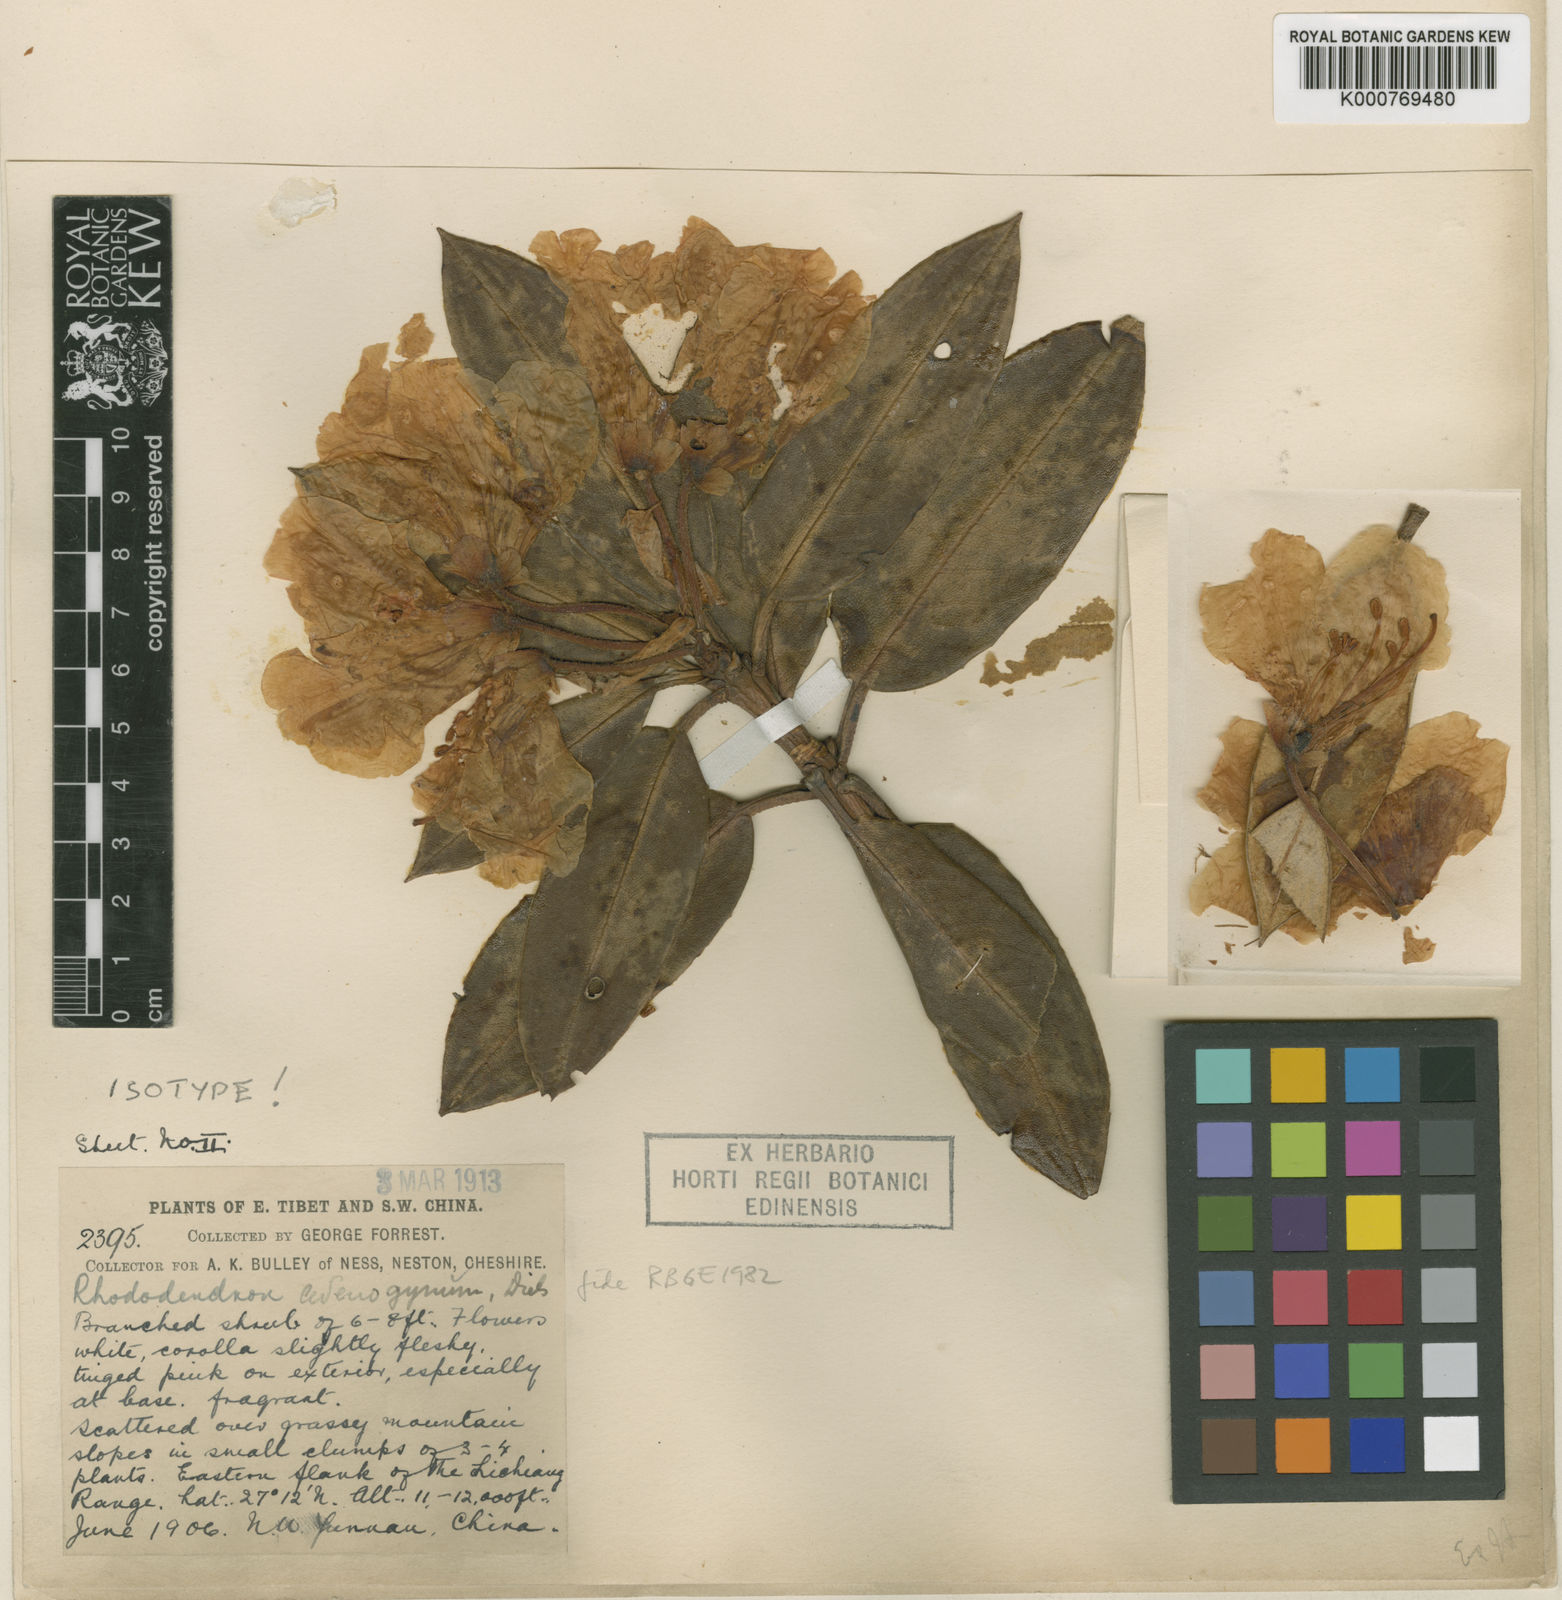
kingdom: Plantae
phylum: Tracheophyta
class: Magnoliopsida
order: Ericales
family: Ericaceae
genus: Rhododendron
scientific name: Rhododendron adenogynum
